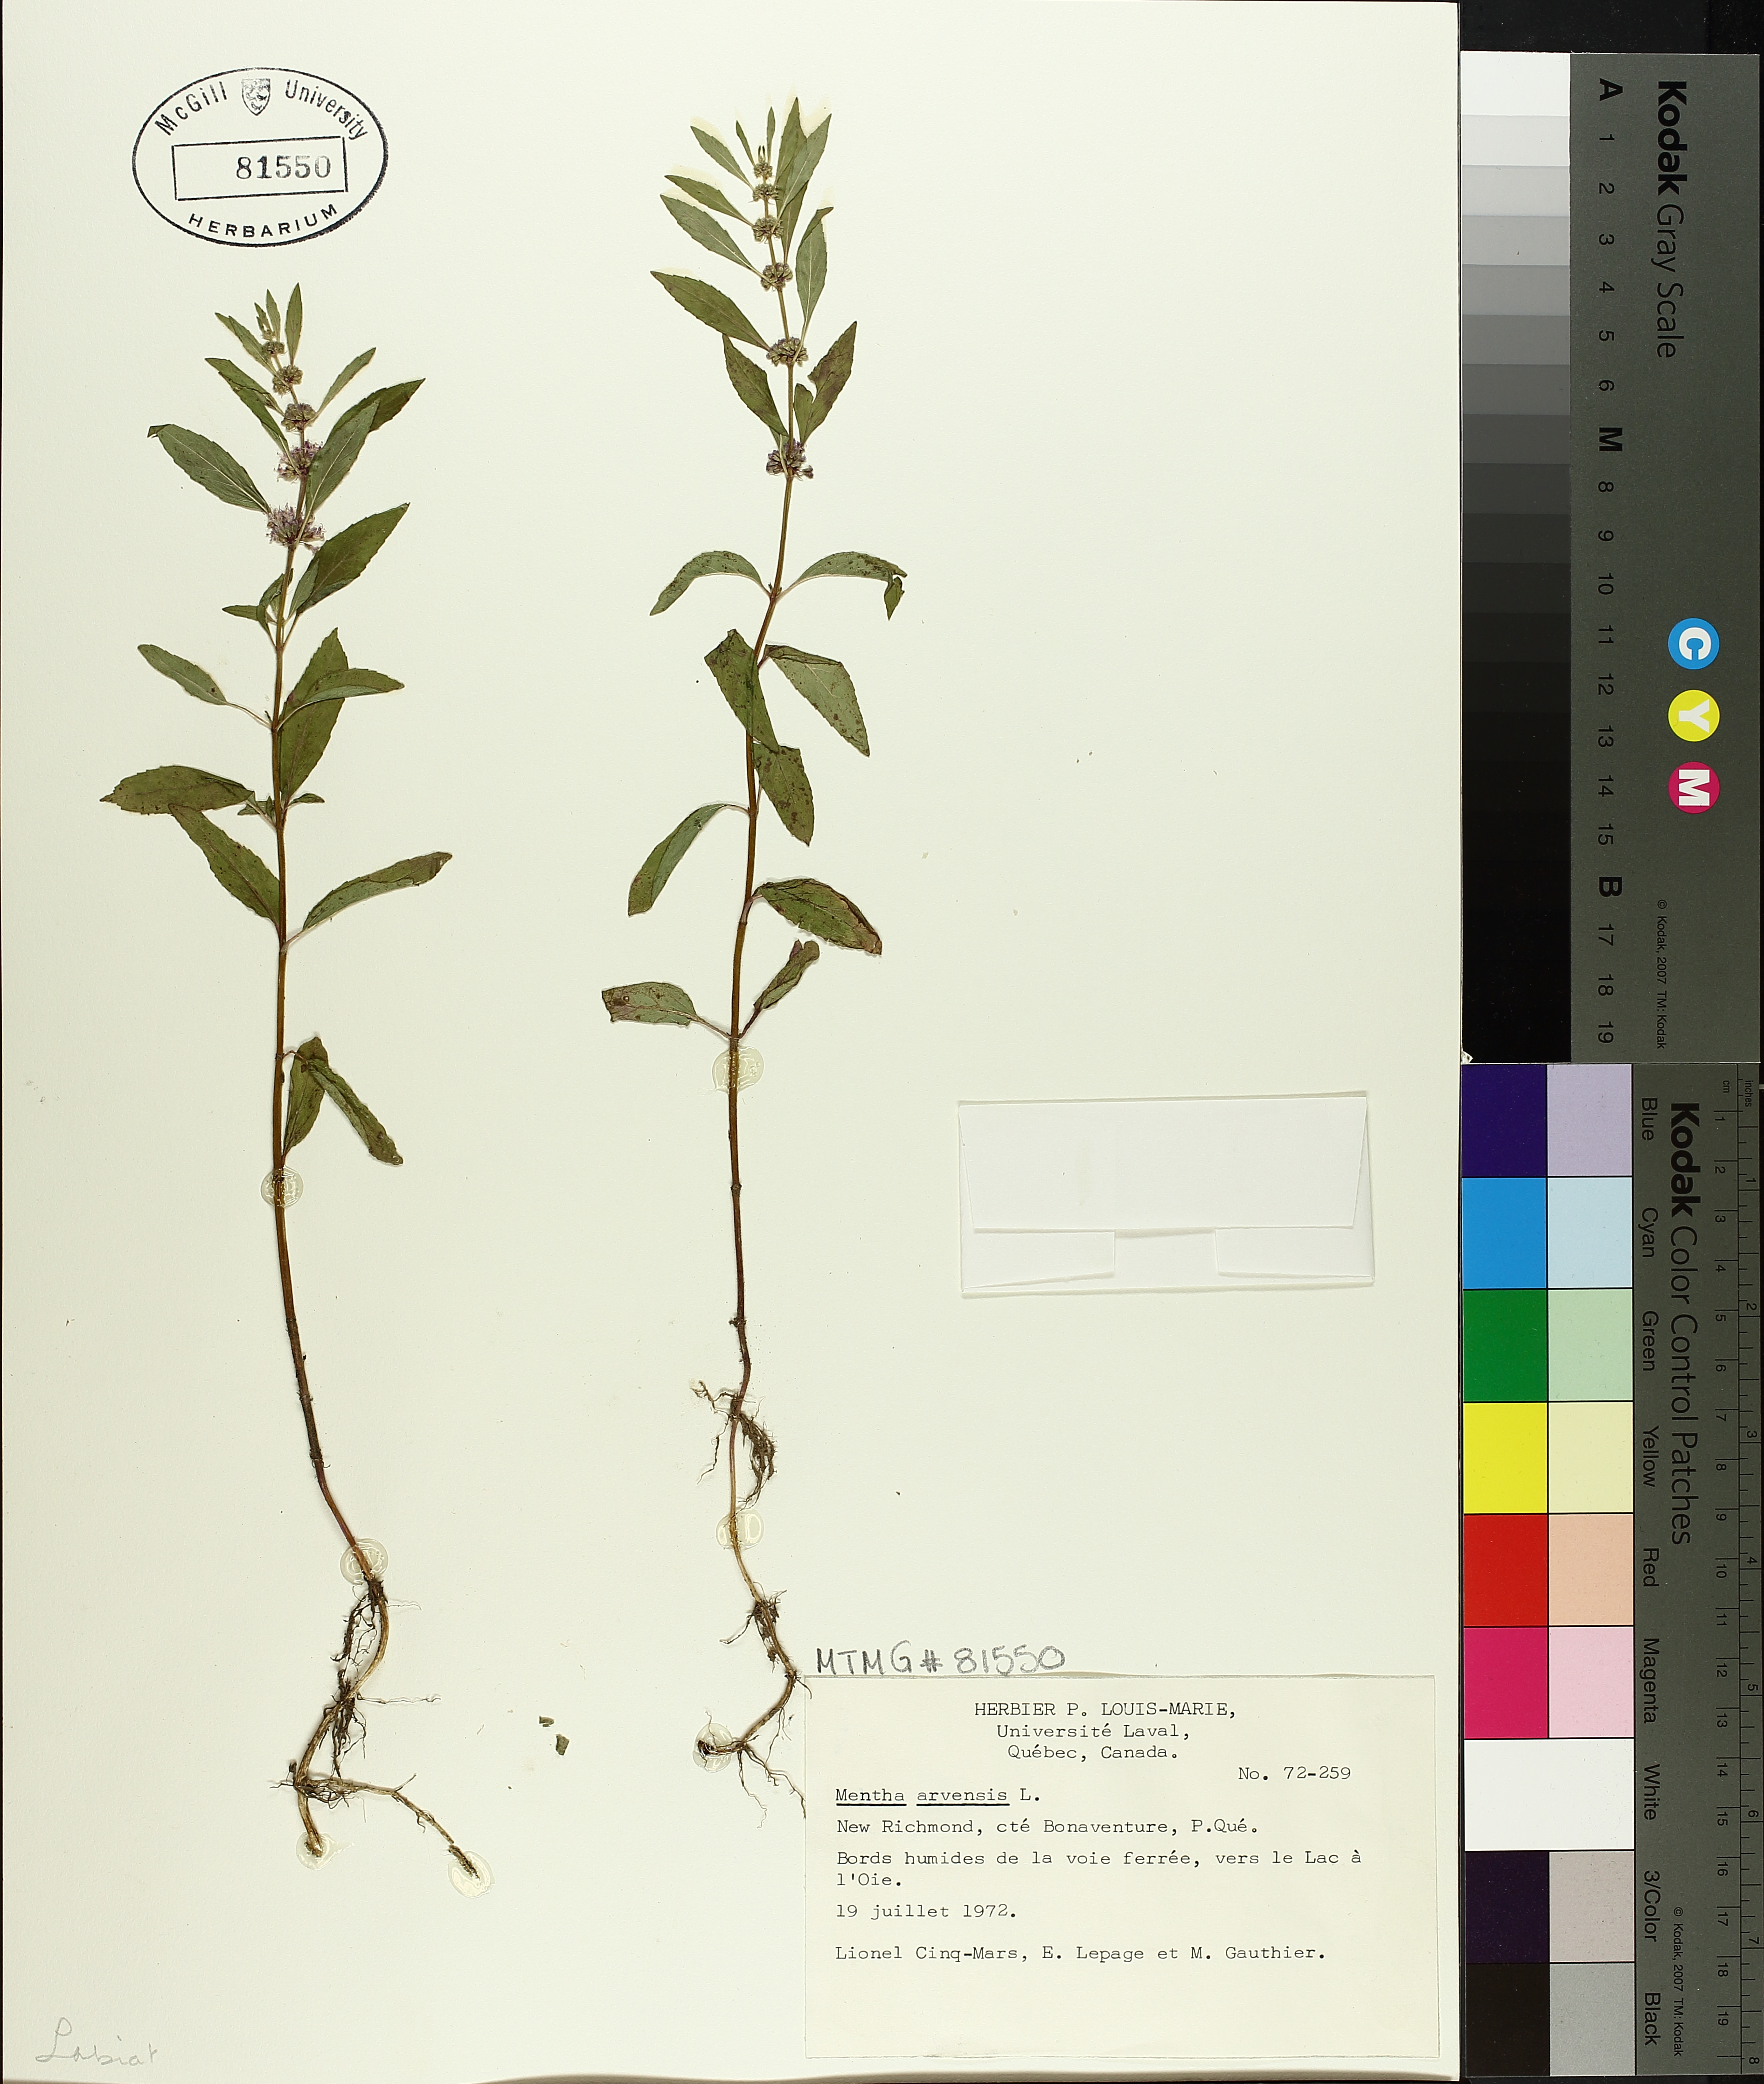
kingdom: Plantae
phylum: Tracheophyta
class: Magnoliopsida
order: Lamiales
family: Lamiaceae
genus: Mentha
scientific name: Mentha arvensis
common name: Corn mint
